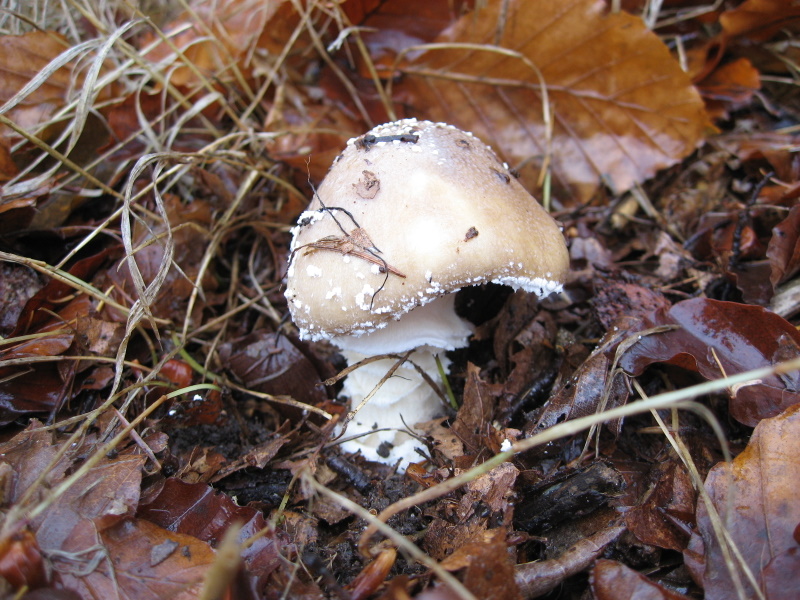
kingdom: Fungi
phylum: Basidiomycota
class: Agaricomycetes
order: Agaricales
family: Amanitaceae
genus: Amanita
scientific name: Amanita pantherina
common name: panter-fluesvamp
